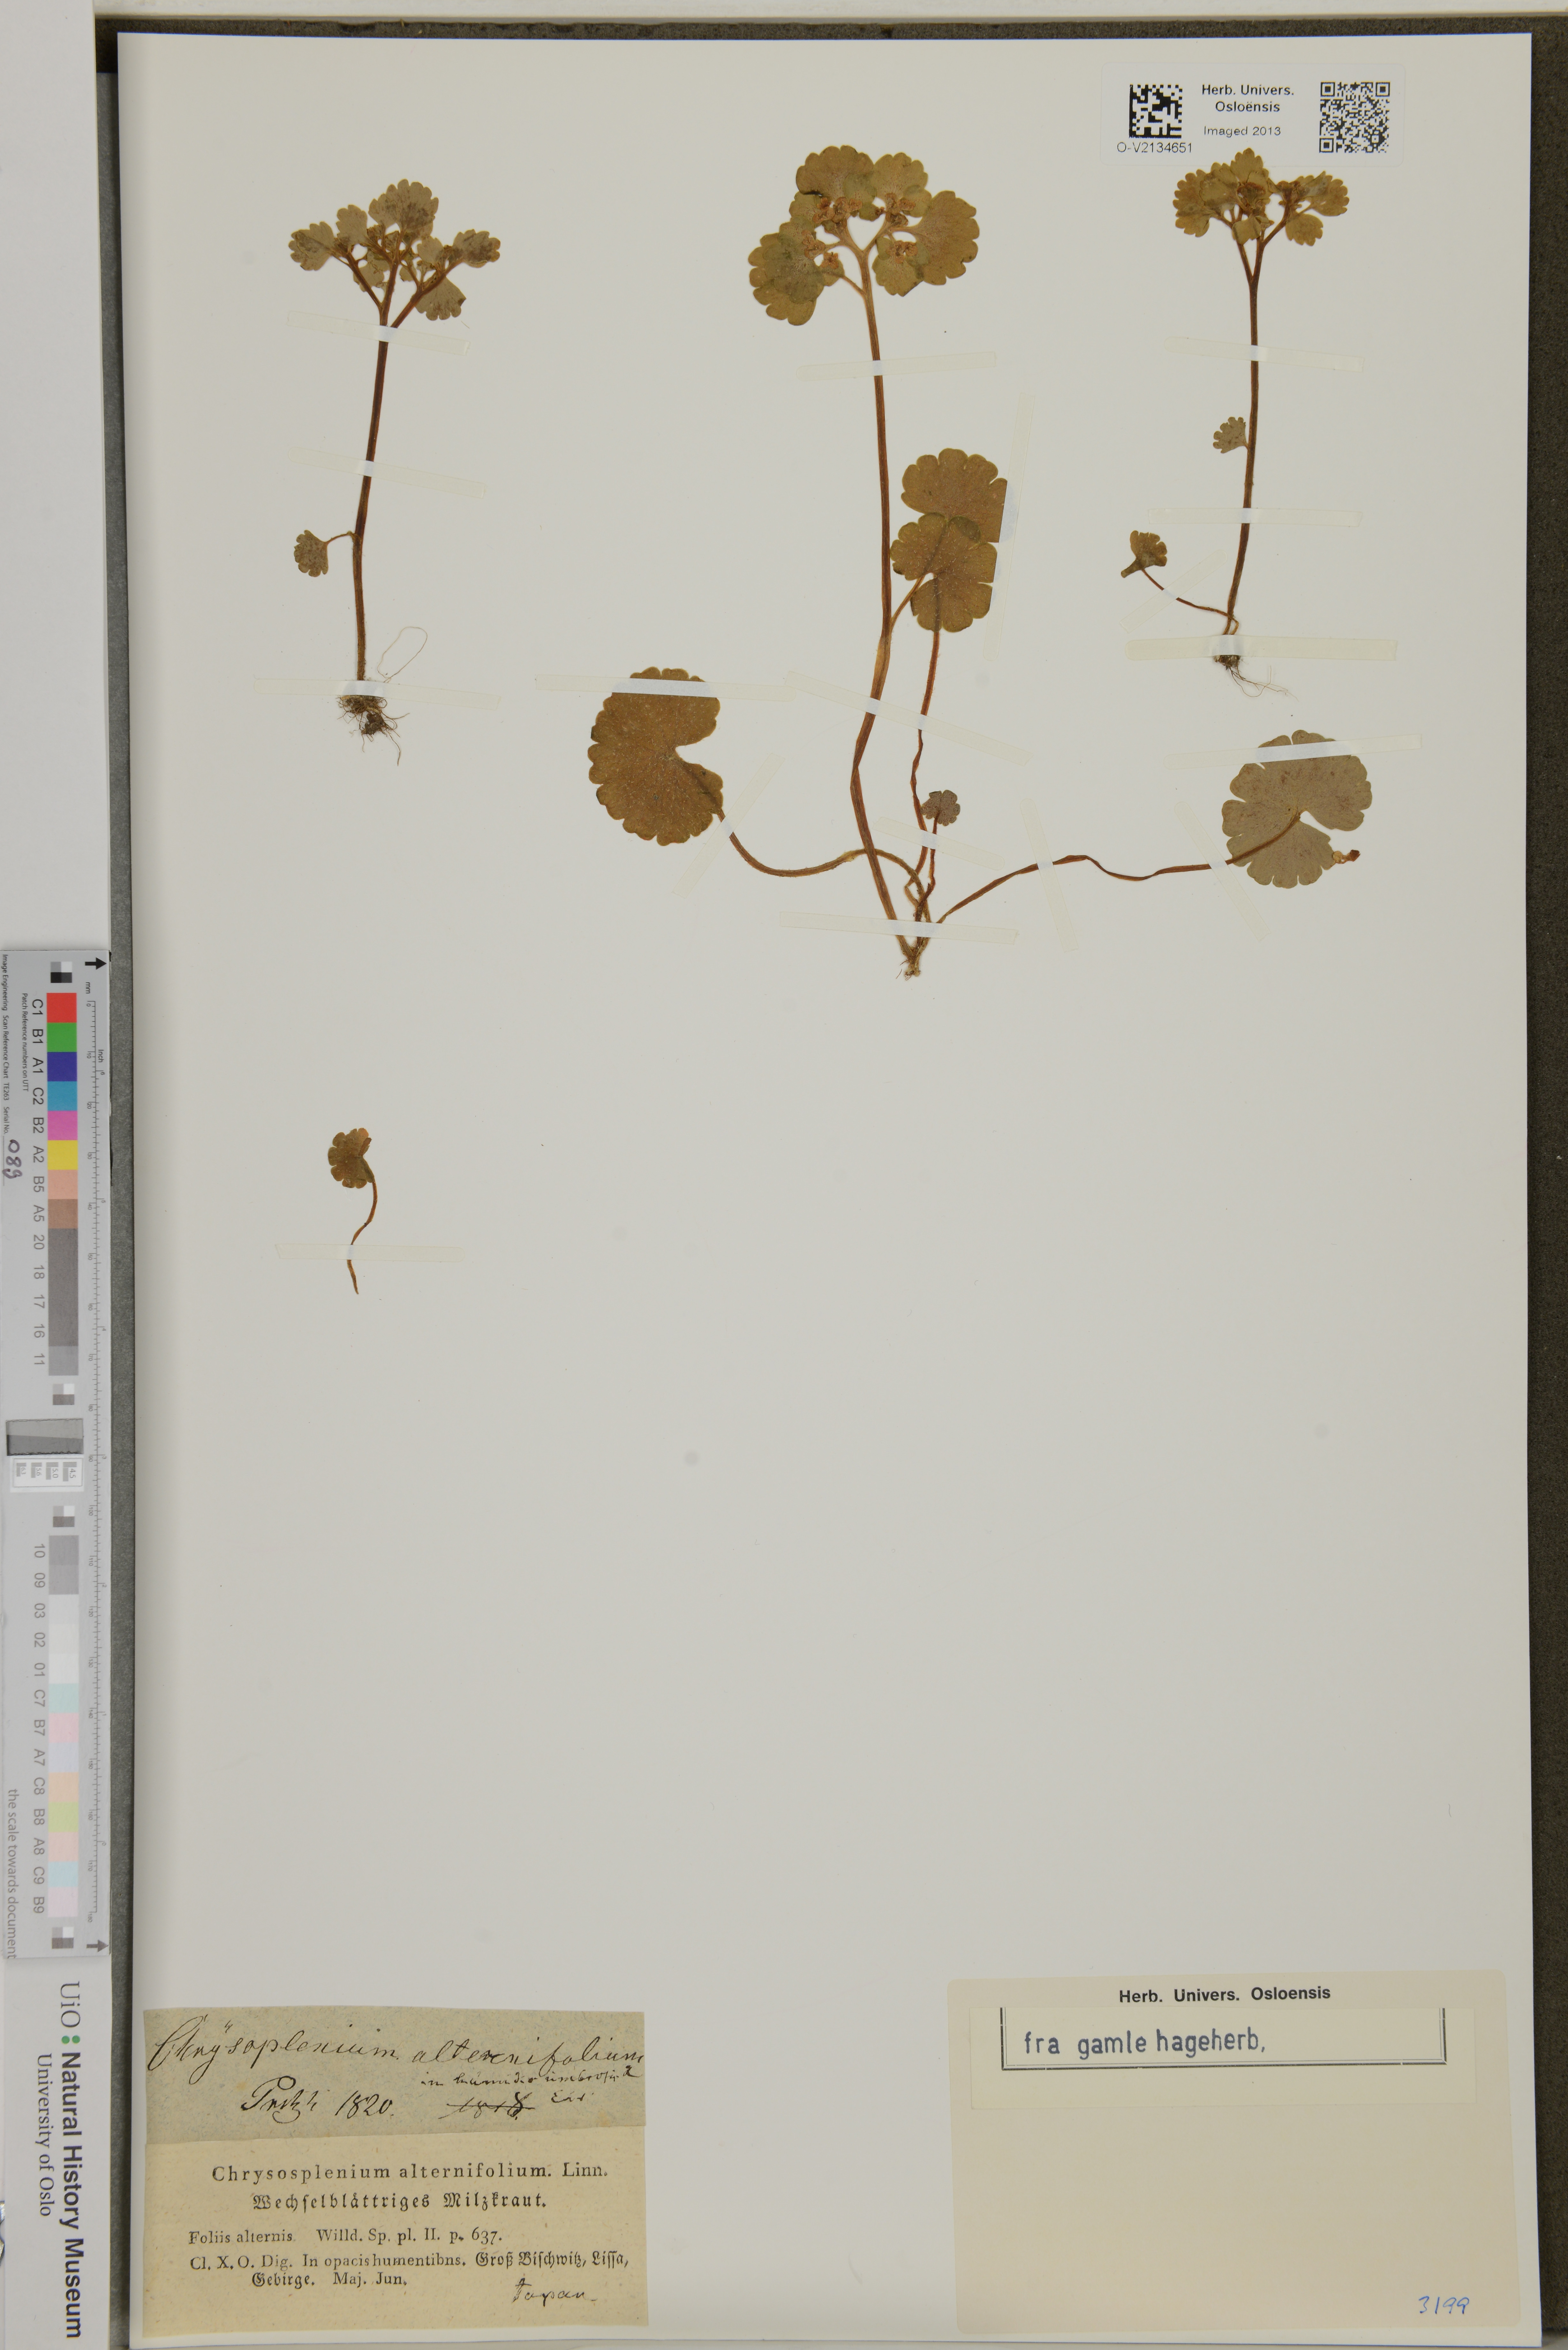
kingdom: Plantae
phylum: Tracheophyta
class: Magnoliopsida
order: Saxifragales
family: Saxifragaceae
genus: Chrysosplenium
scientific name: Chrysosplenium alternifolium
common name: Alternate-leaved golden-saxifrage
